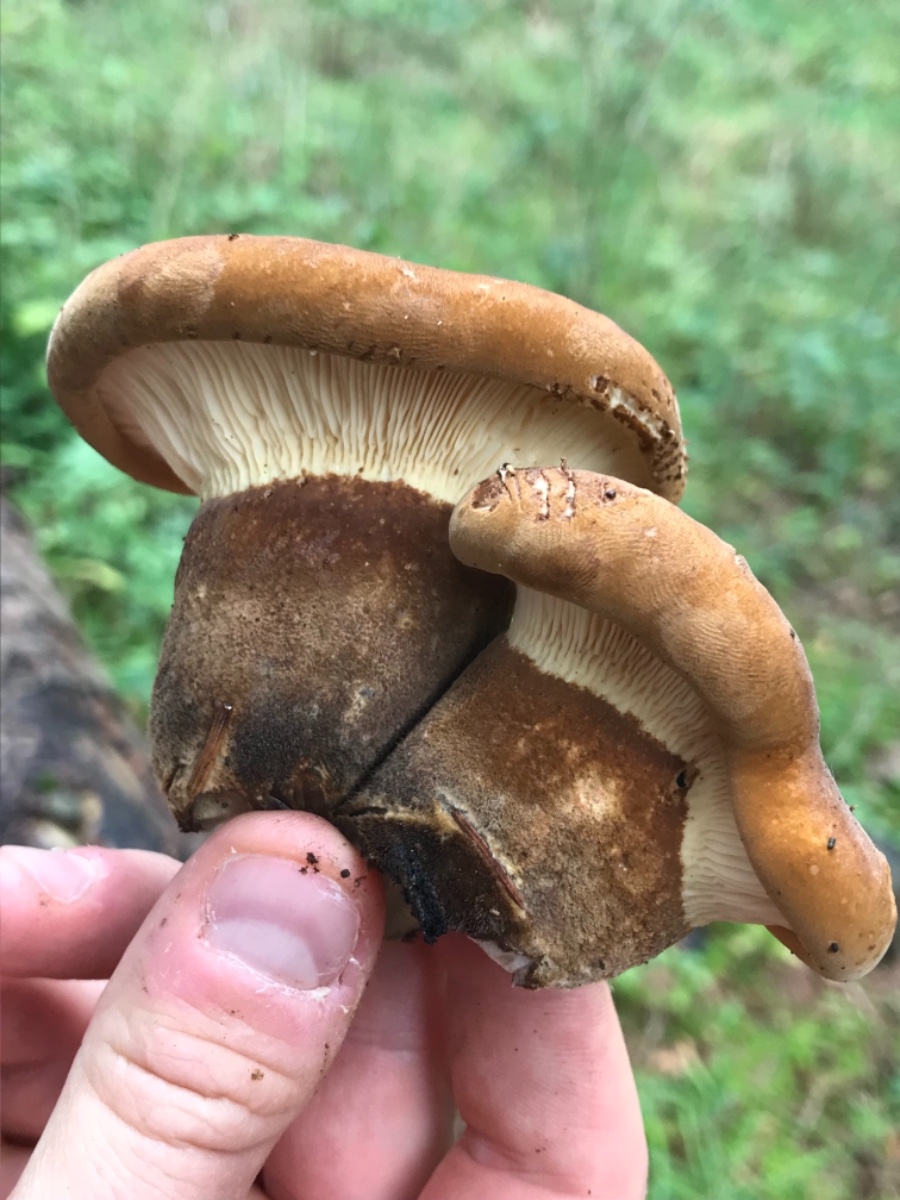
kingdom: Fungi
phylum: Basidiomycota
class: Agaricomycetes
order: Boletales
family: Tapinellaceae
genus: Tapinella
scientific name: Tapinella atrotomentosa
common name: sortfiltet viftesvamp
